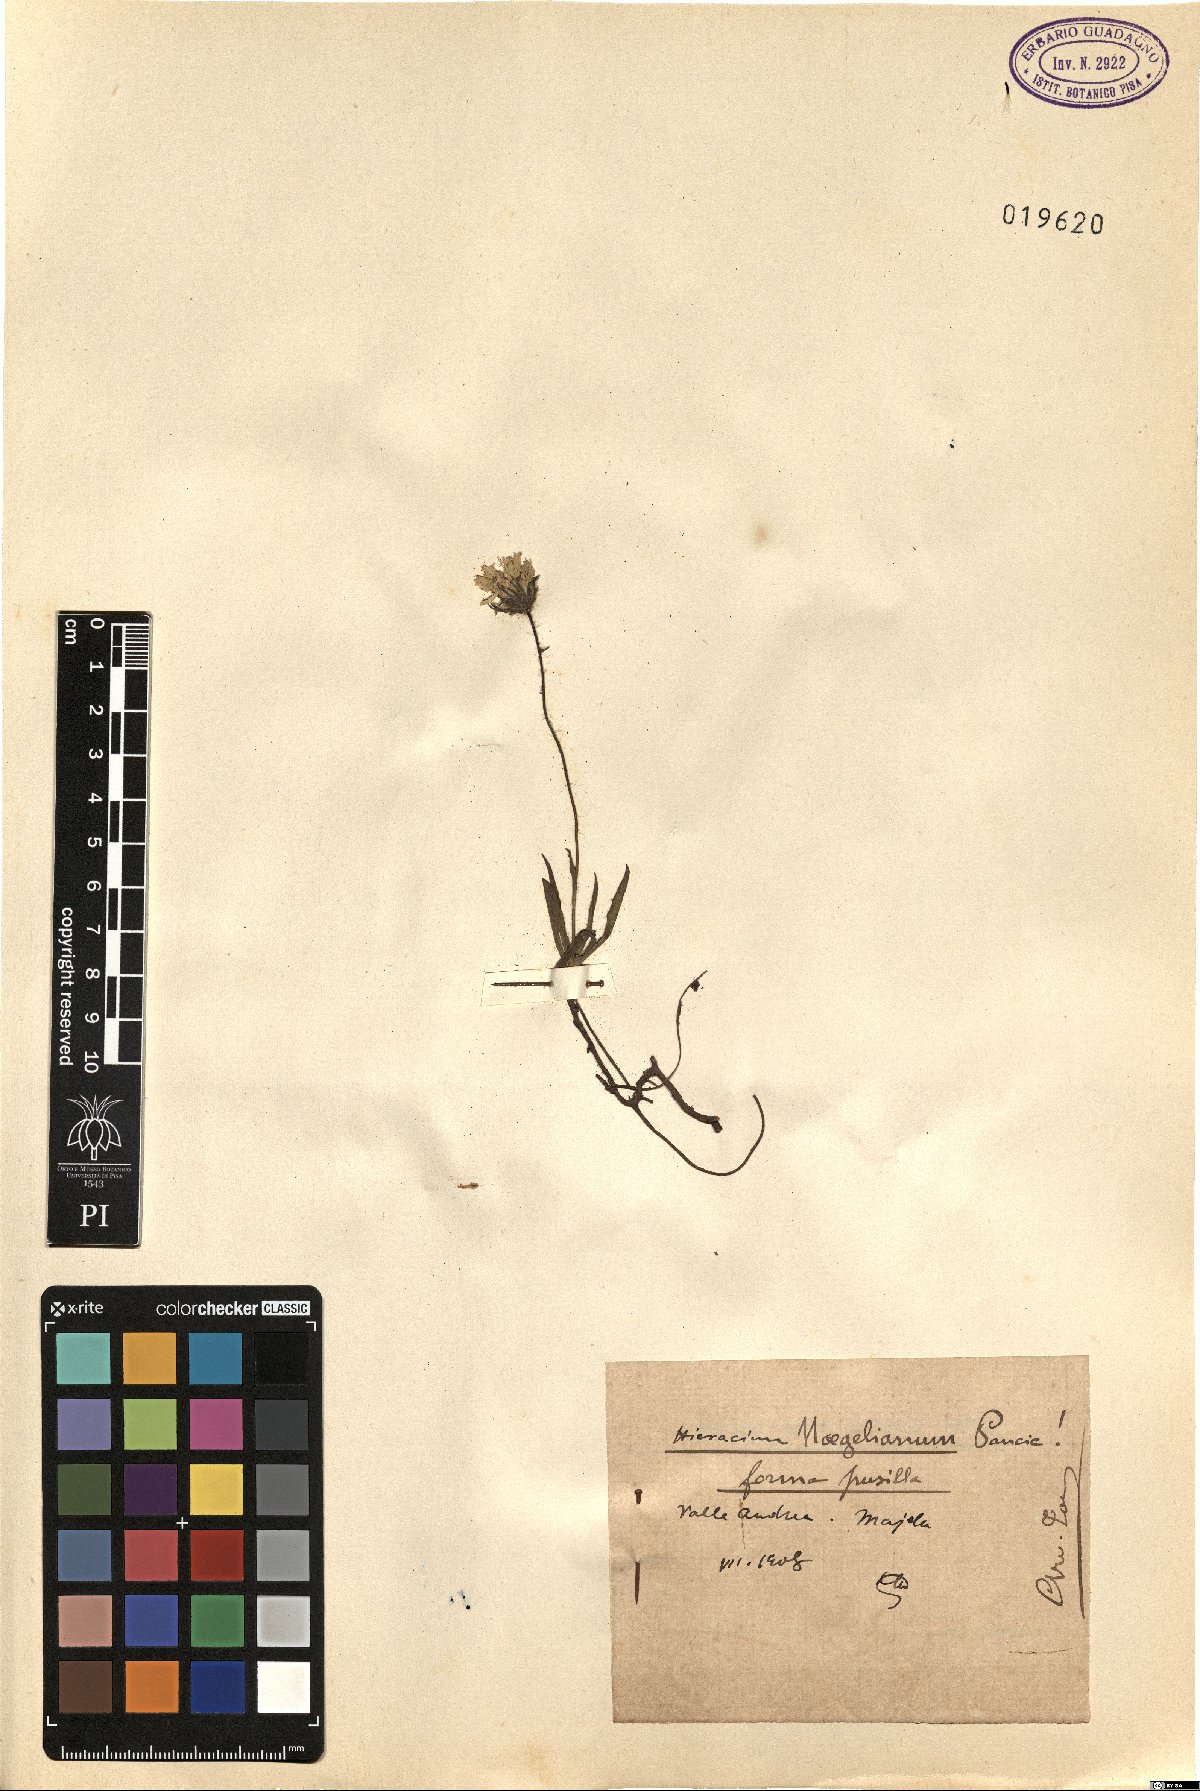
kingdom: Plantae
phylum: Tracheophyta
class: Magnoliopsida
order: Asterales
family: Asteraceae
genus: Hieracium
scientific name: Hieracium naegelianum
